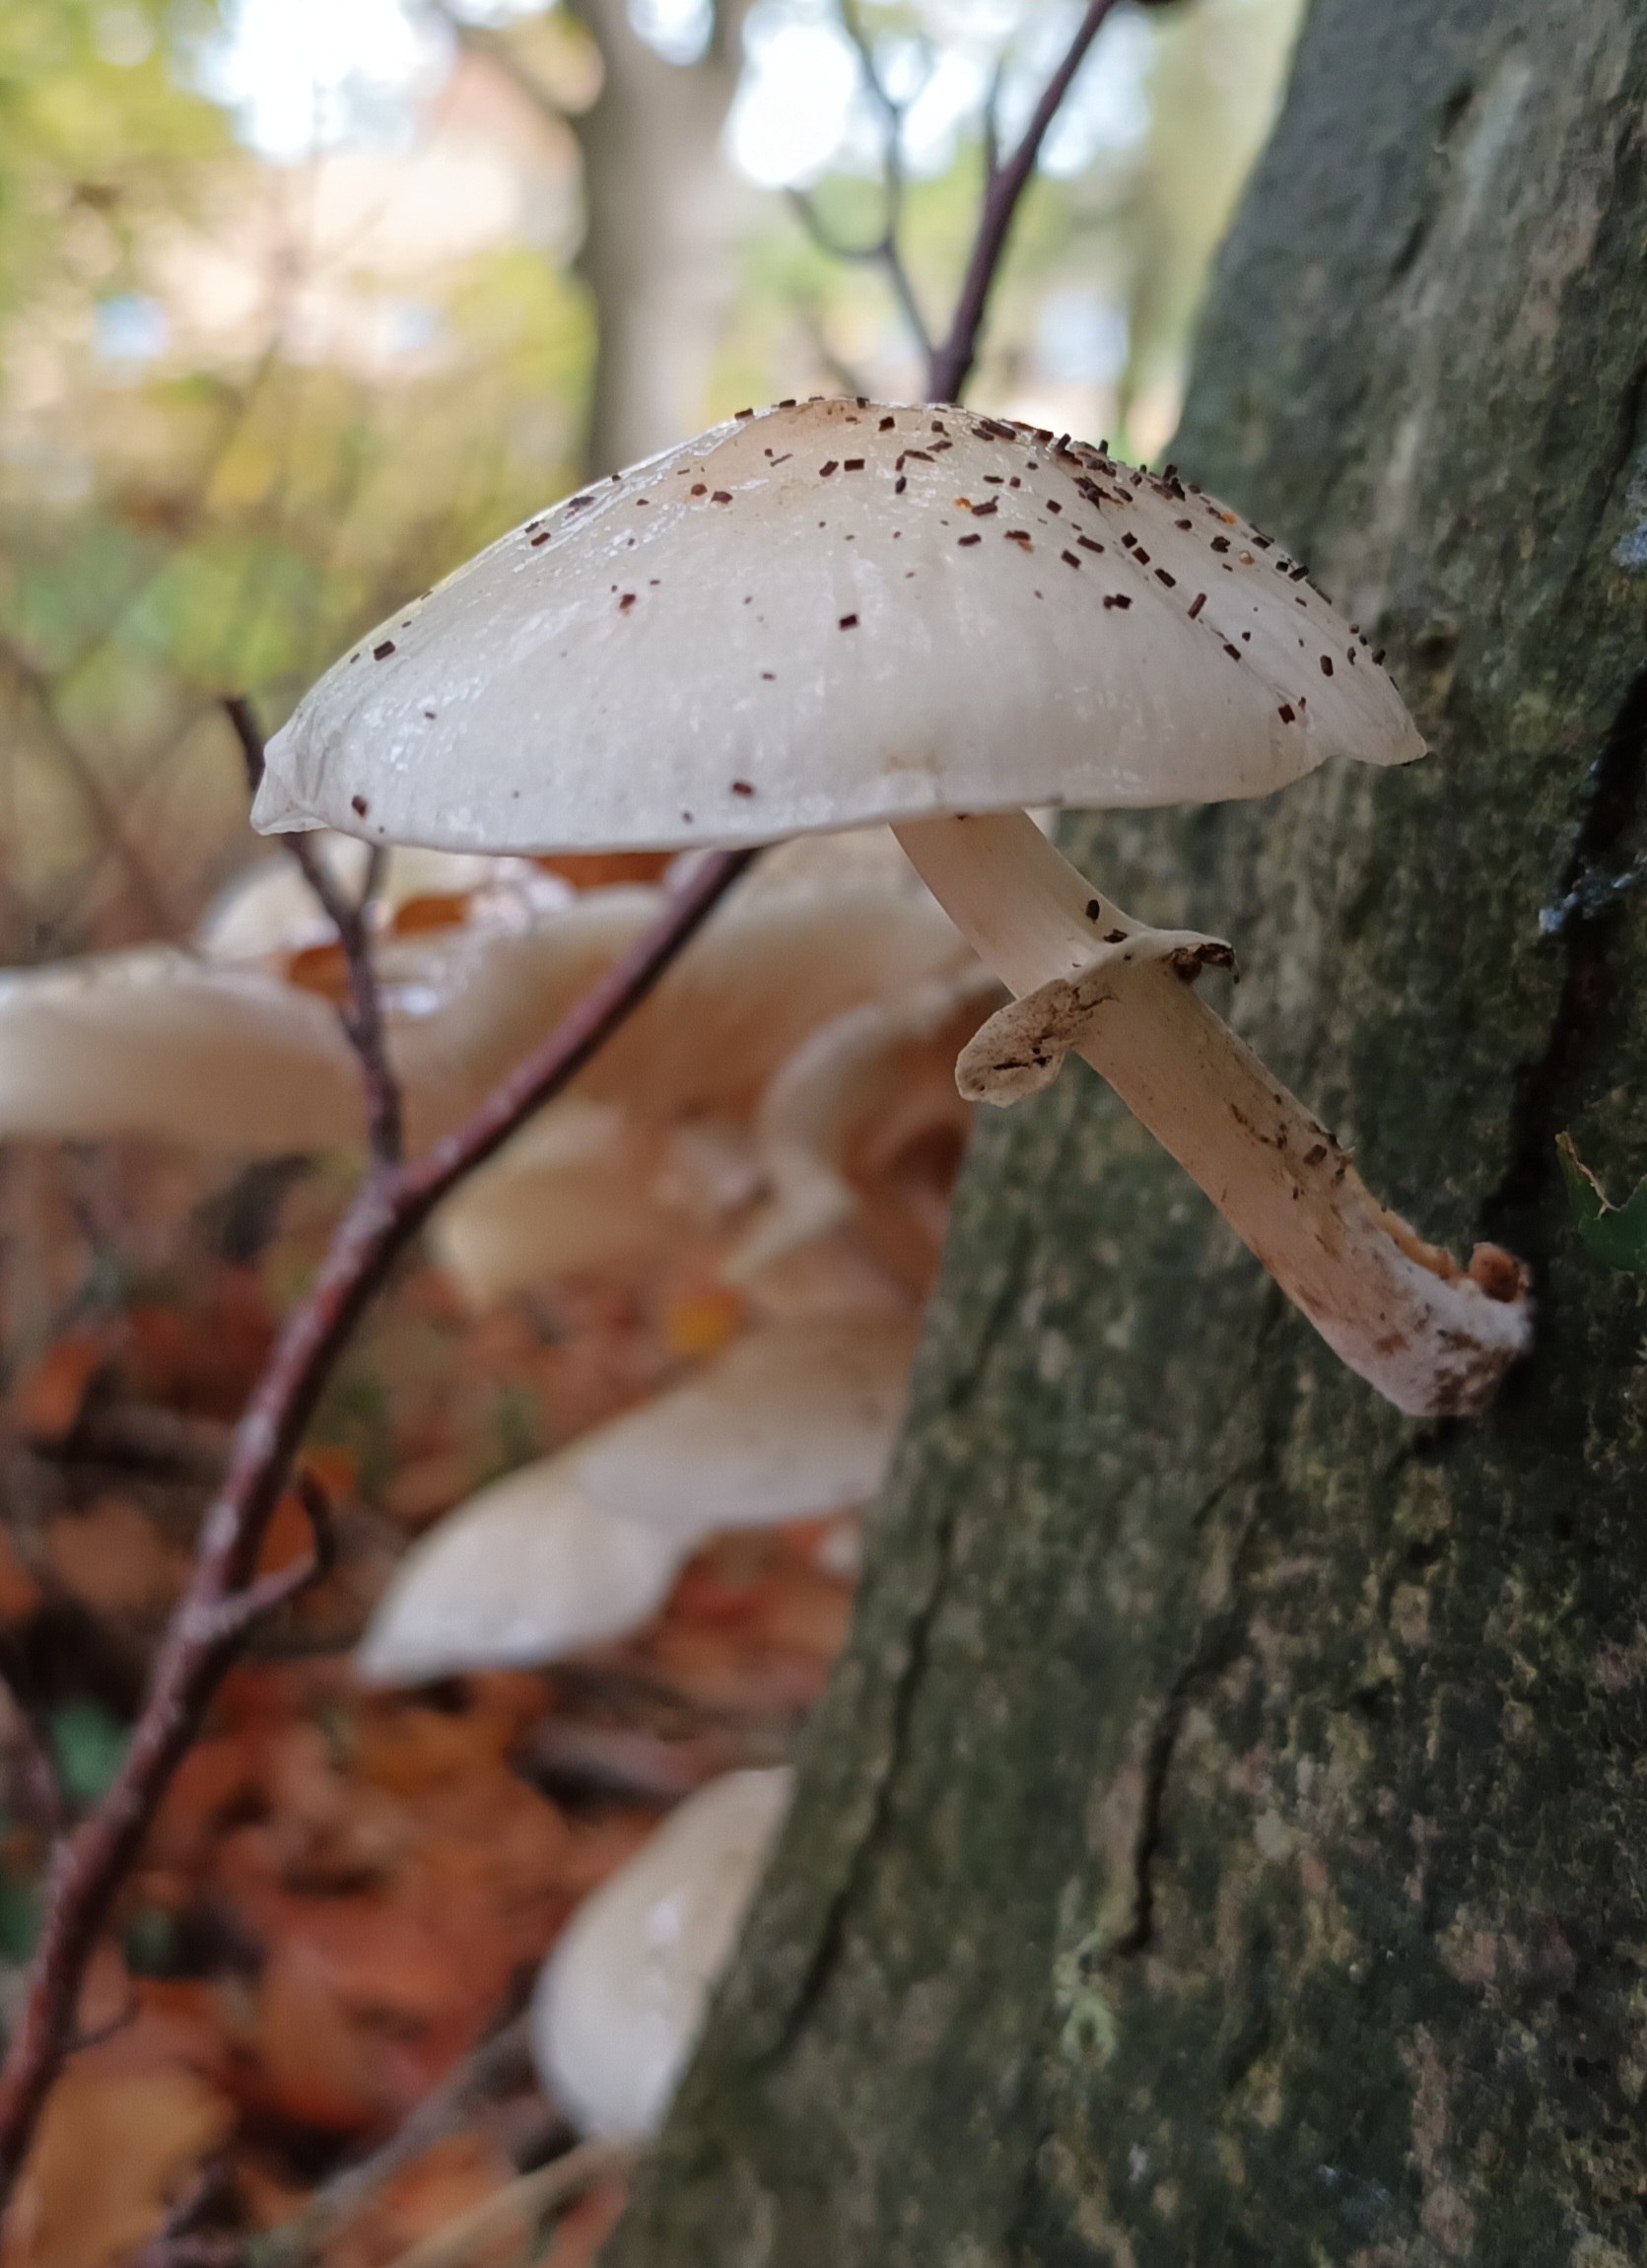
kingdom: Fungi
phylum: Basidiomycota
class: Agaricomycetes
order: Agaricales
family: Physalacriaceae
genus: Mucidula
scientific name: Mucidula mucida
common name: Porcelænshat
